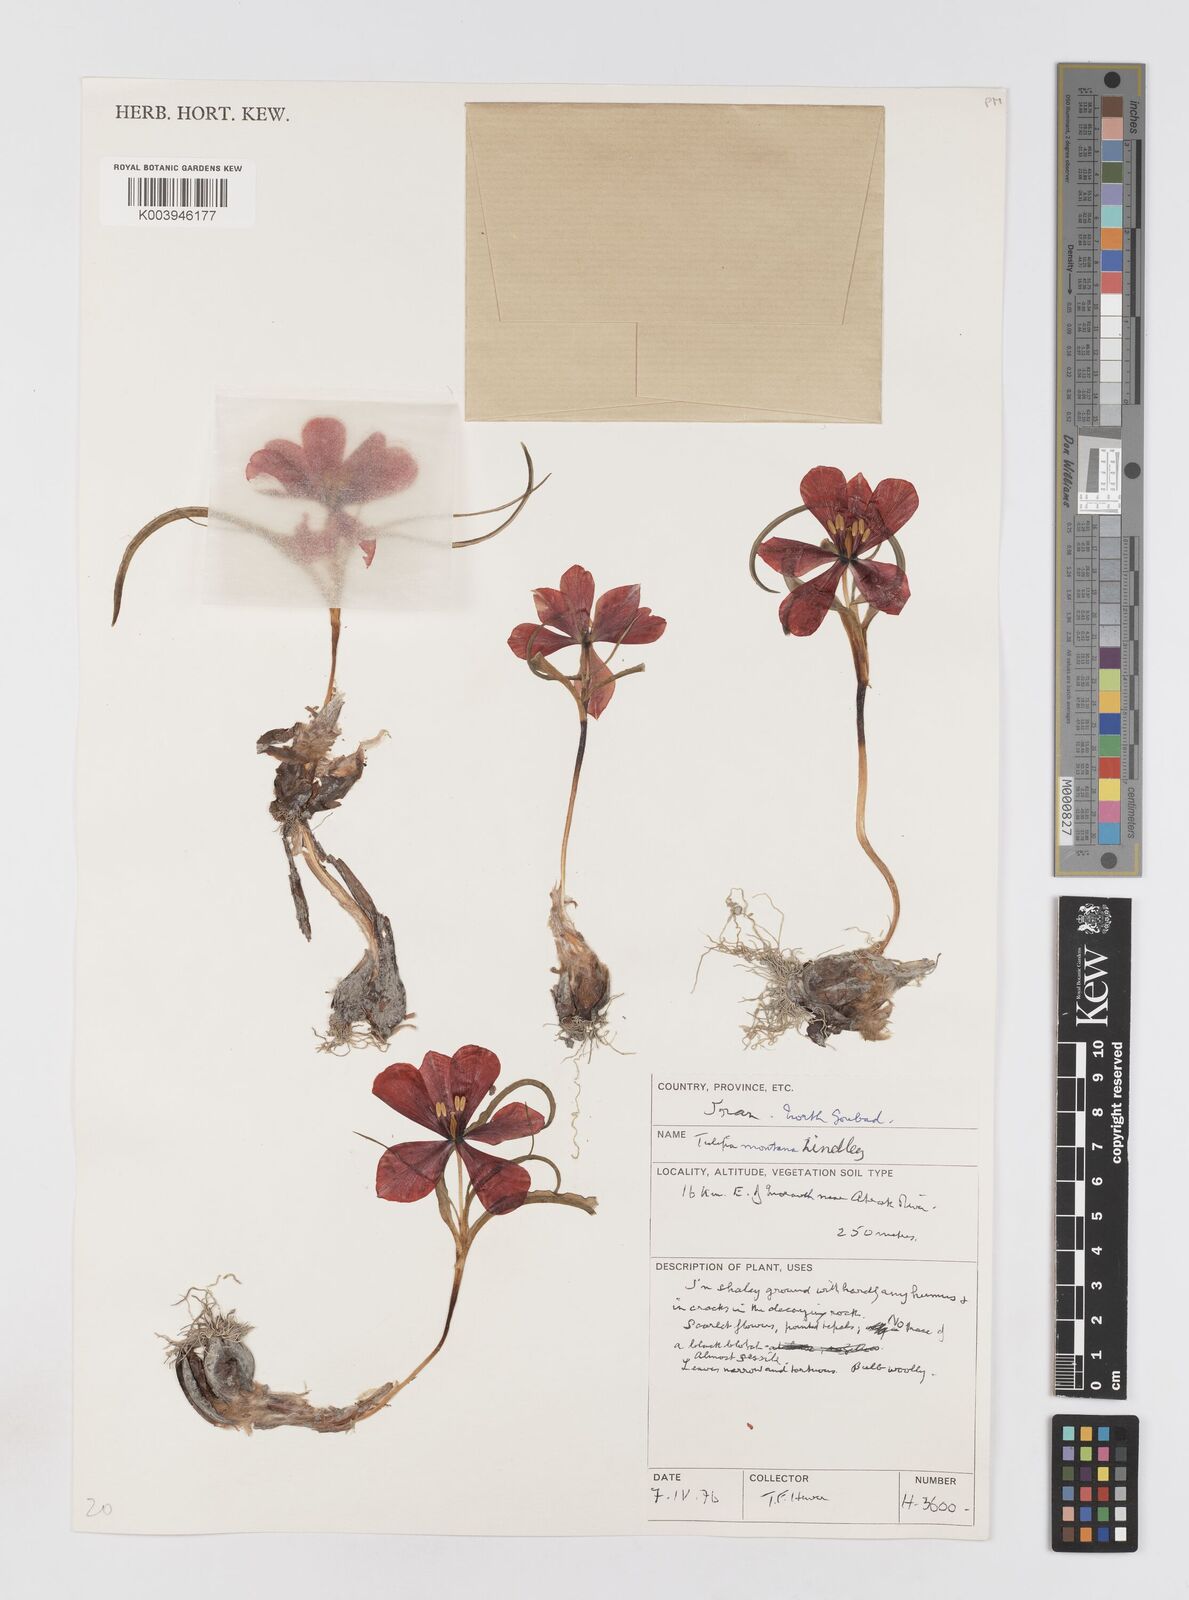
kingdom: Plantae
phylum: Tracheophyta
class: Liliopsida
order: Liliales
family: Liliaceae
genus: Tulipa
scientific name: Tulipa montana
